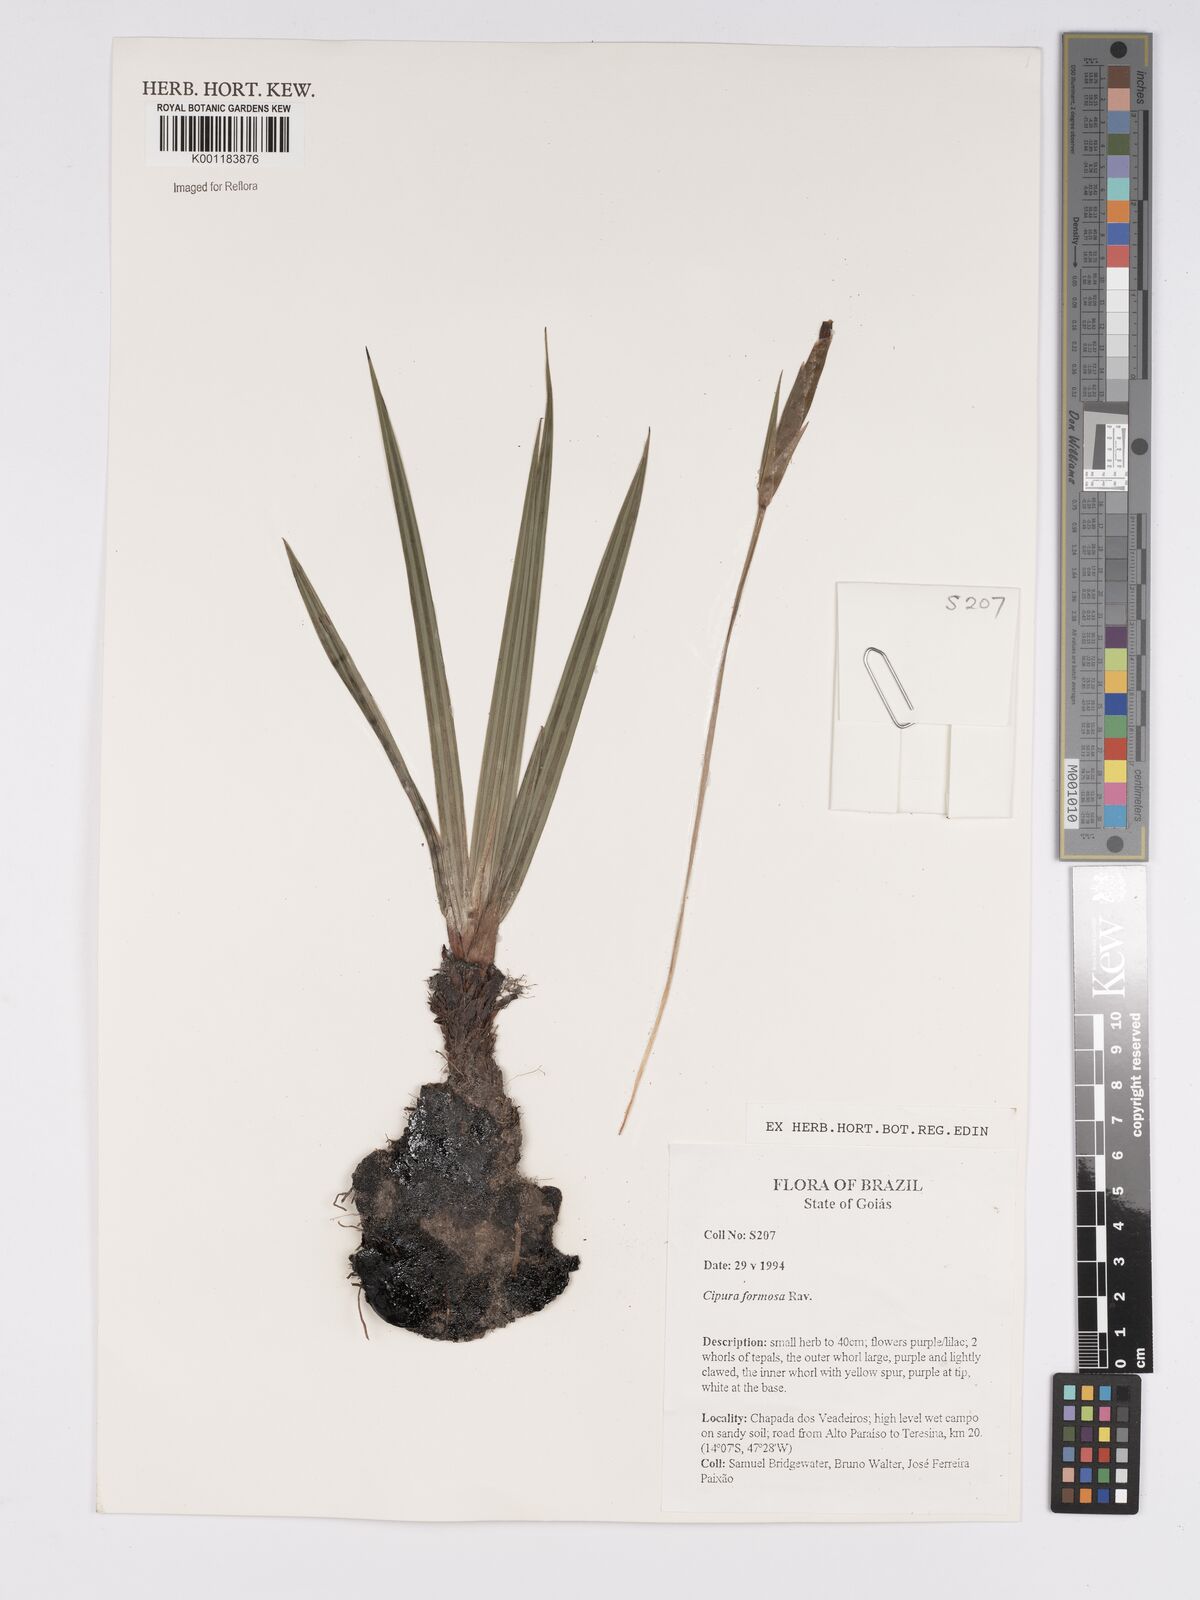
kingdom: Plantae
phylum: Tracheophyta
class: Liliopsida
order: Asparagales
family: Iridaceae
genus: Cipura
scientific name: Cipura formosa
